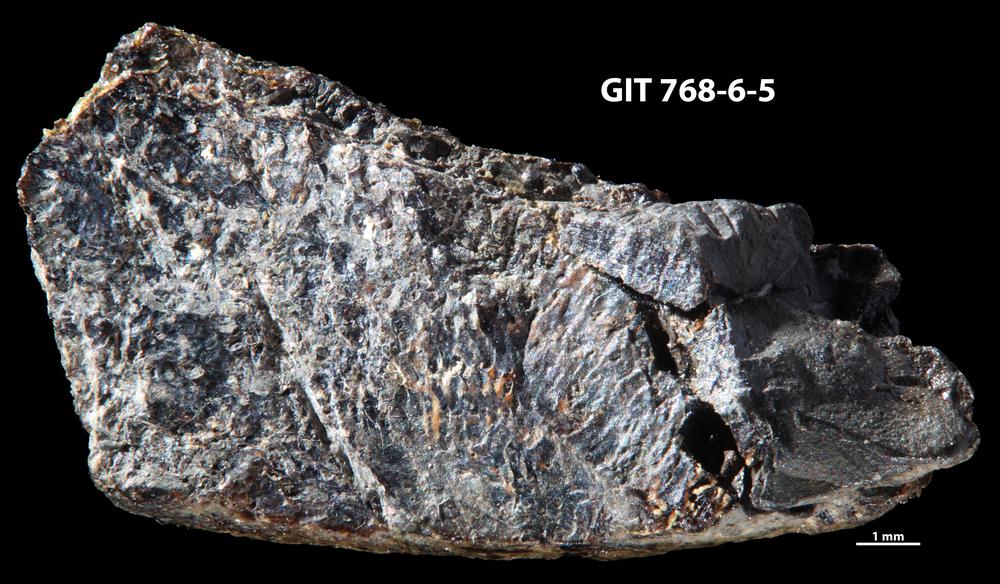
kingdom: Animalia
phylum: Chordata
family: Holonematidae
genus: Groenlandaspis
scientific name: Groenlandaspis
